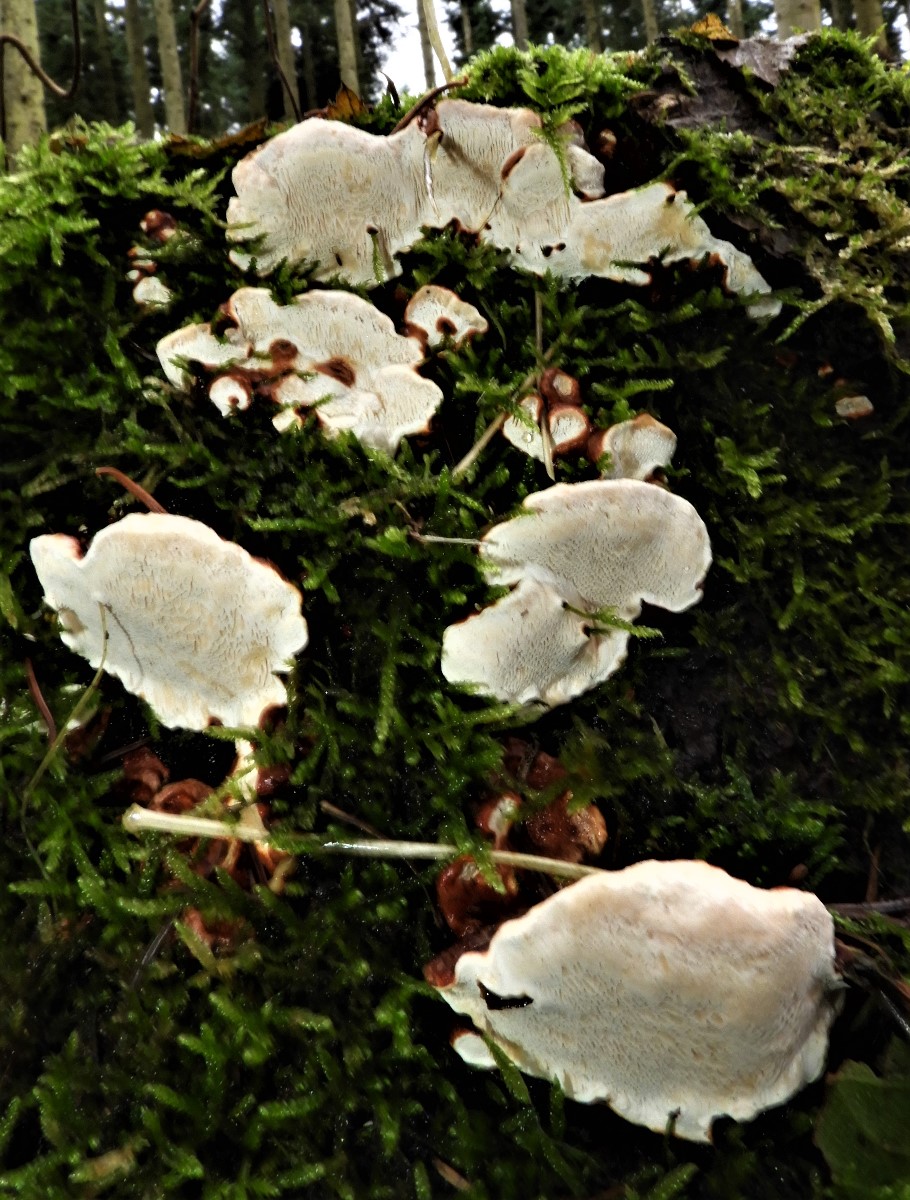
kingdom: Fungi
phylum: Basidiomycota
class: Agaricomycetes
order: Russulales
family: Bondarzewiaceae
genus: Heterobasidion
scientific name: Heterobasidion annosum
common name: almindelig rodfordærver
